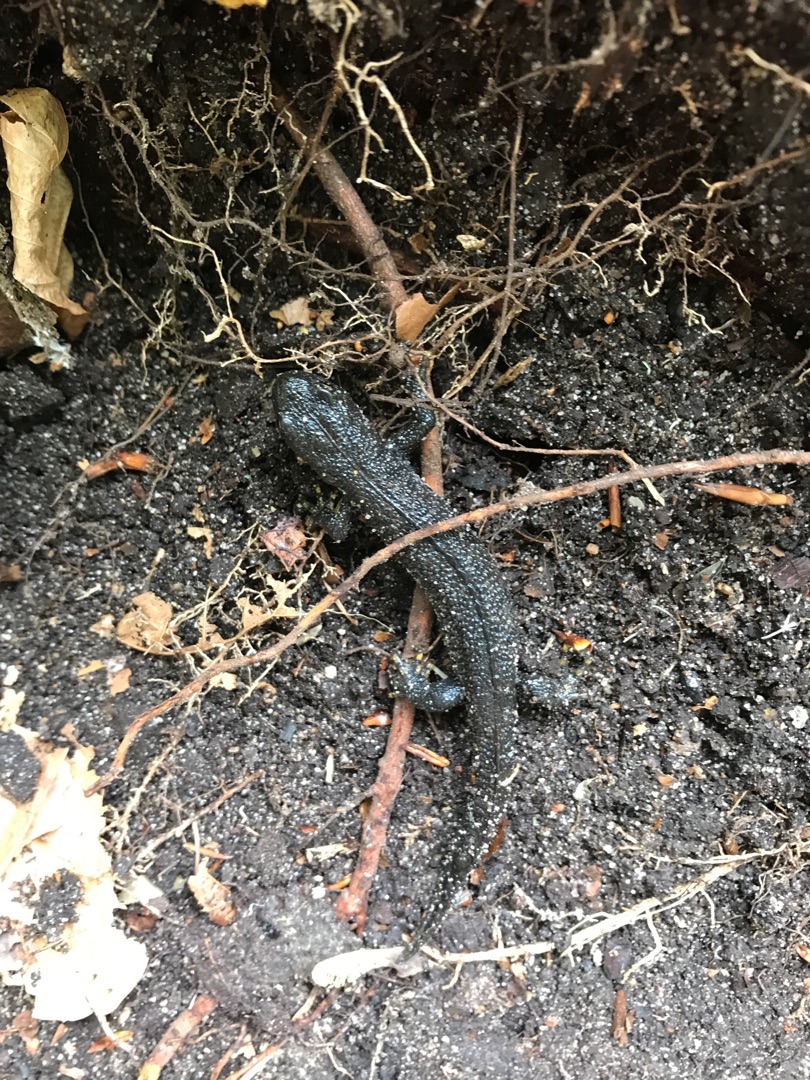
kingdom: Animalia
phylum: Chordata
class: Amphibia
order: Caudata
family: Salamandridae
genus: Triturus
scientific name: Triturus cristatus
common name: Stor vandsalamander
